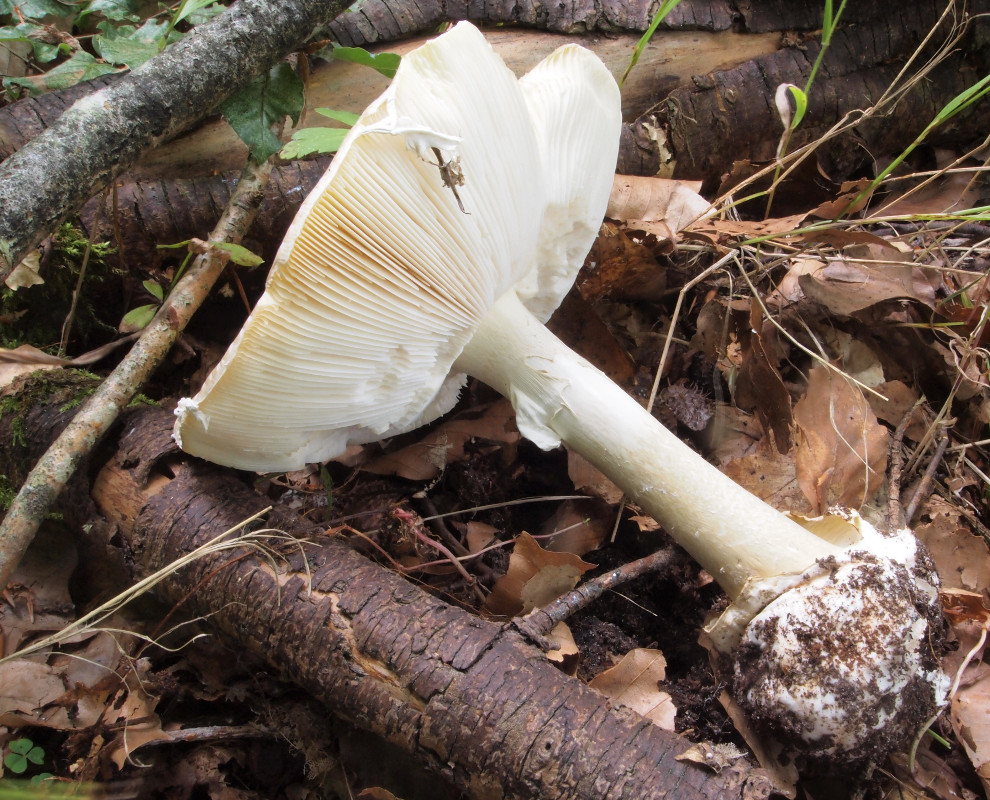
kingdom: Fungi
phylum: Basidiomycota
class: Agaricomycetes
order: Agaricales
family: Amanitaceae
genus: Amanita
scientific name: Amanita phalloides
